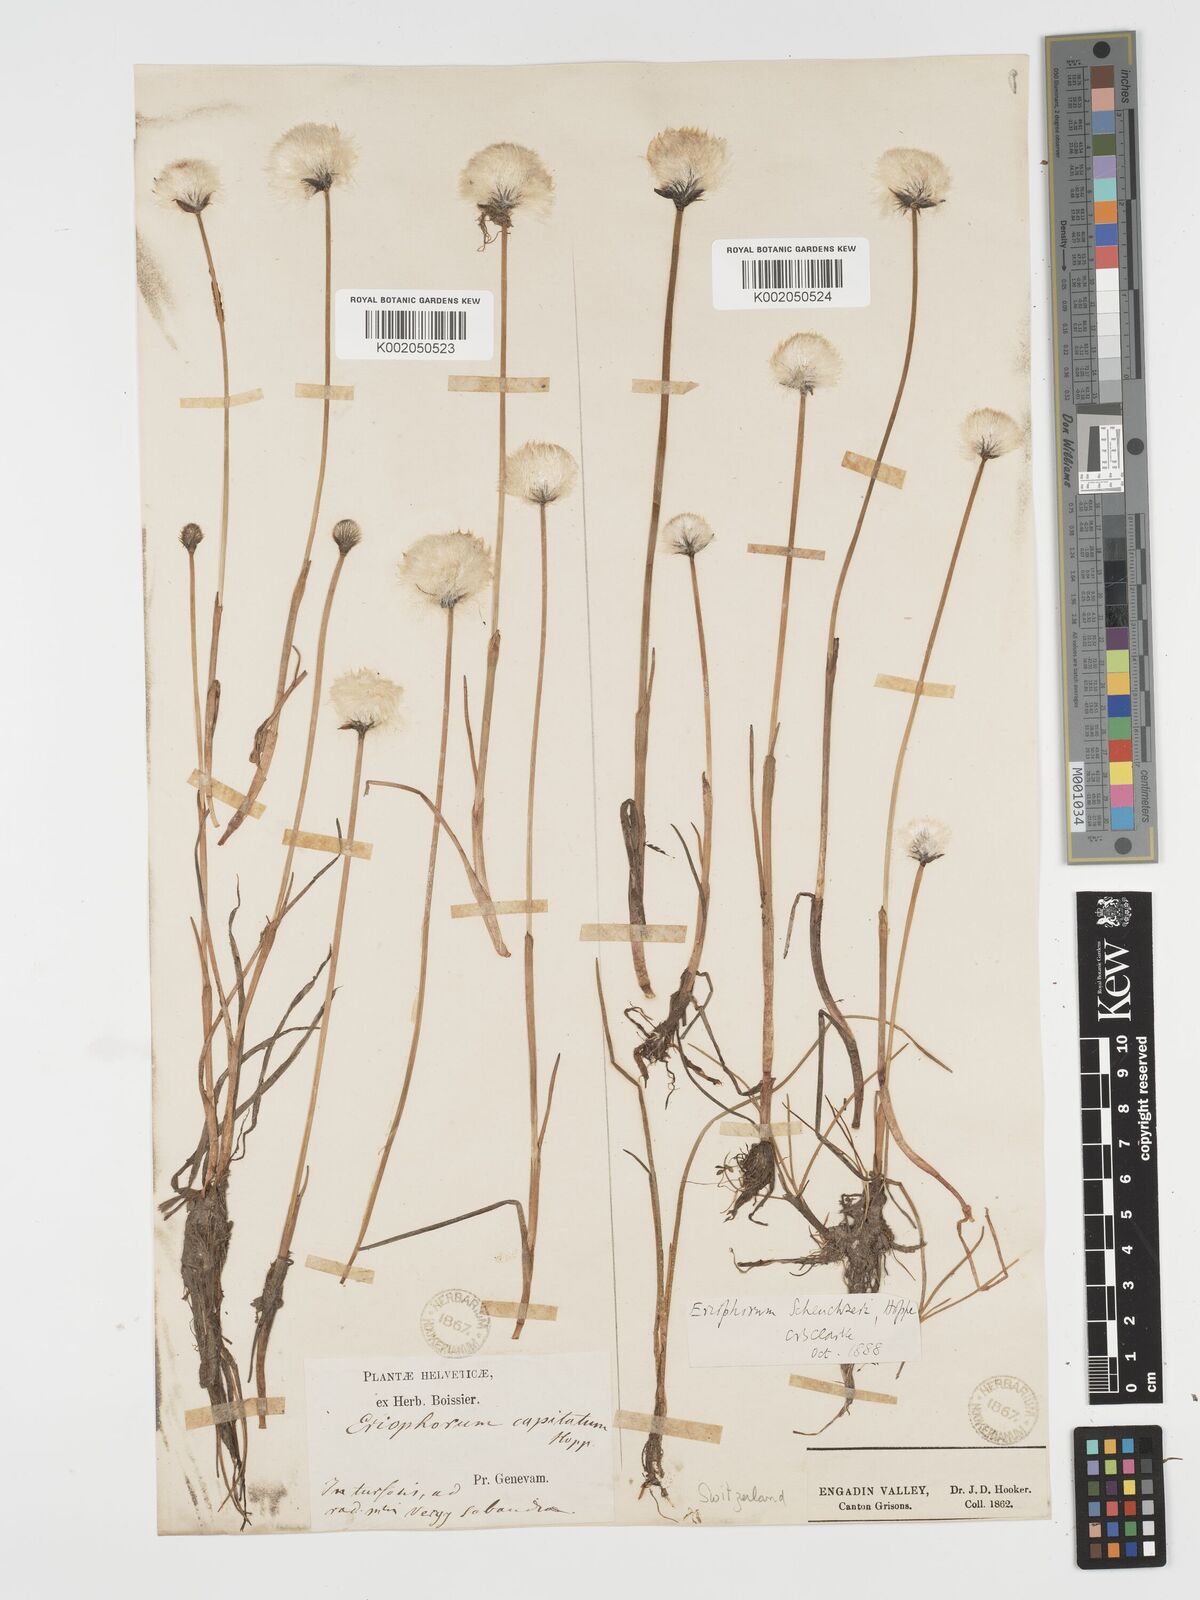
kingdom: Plantae
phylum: Tracheophyta
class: Liliopsida
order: Poales
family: Cyperaceae
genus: Eriophorum
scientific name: Eriophorum scheuchzeri
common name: Scheuchzer's cottongrass
